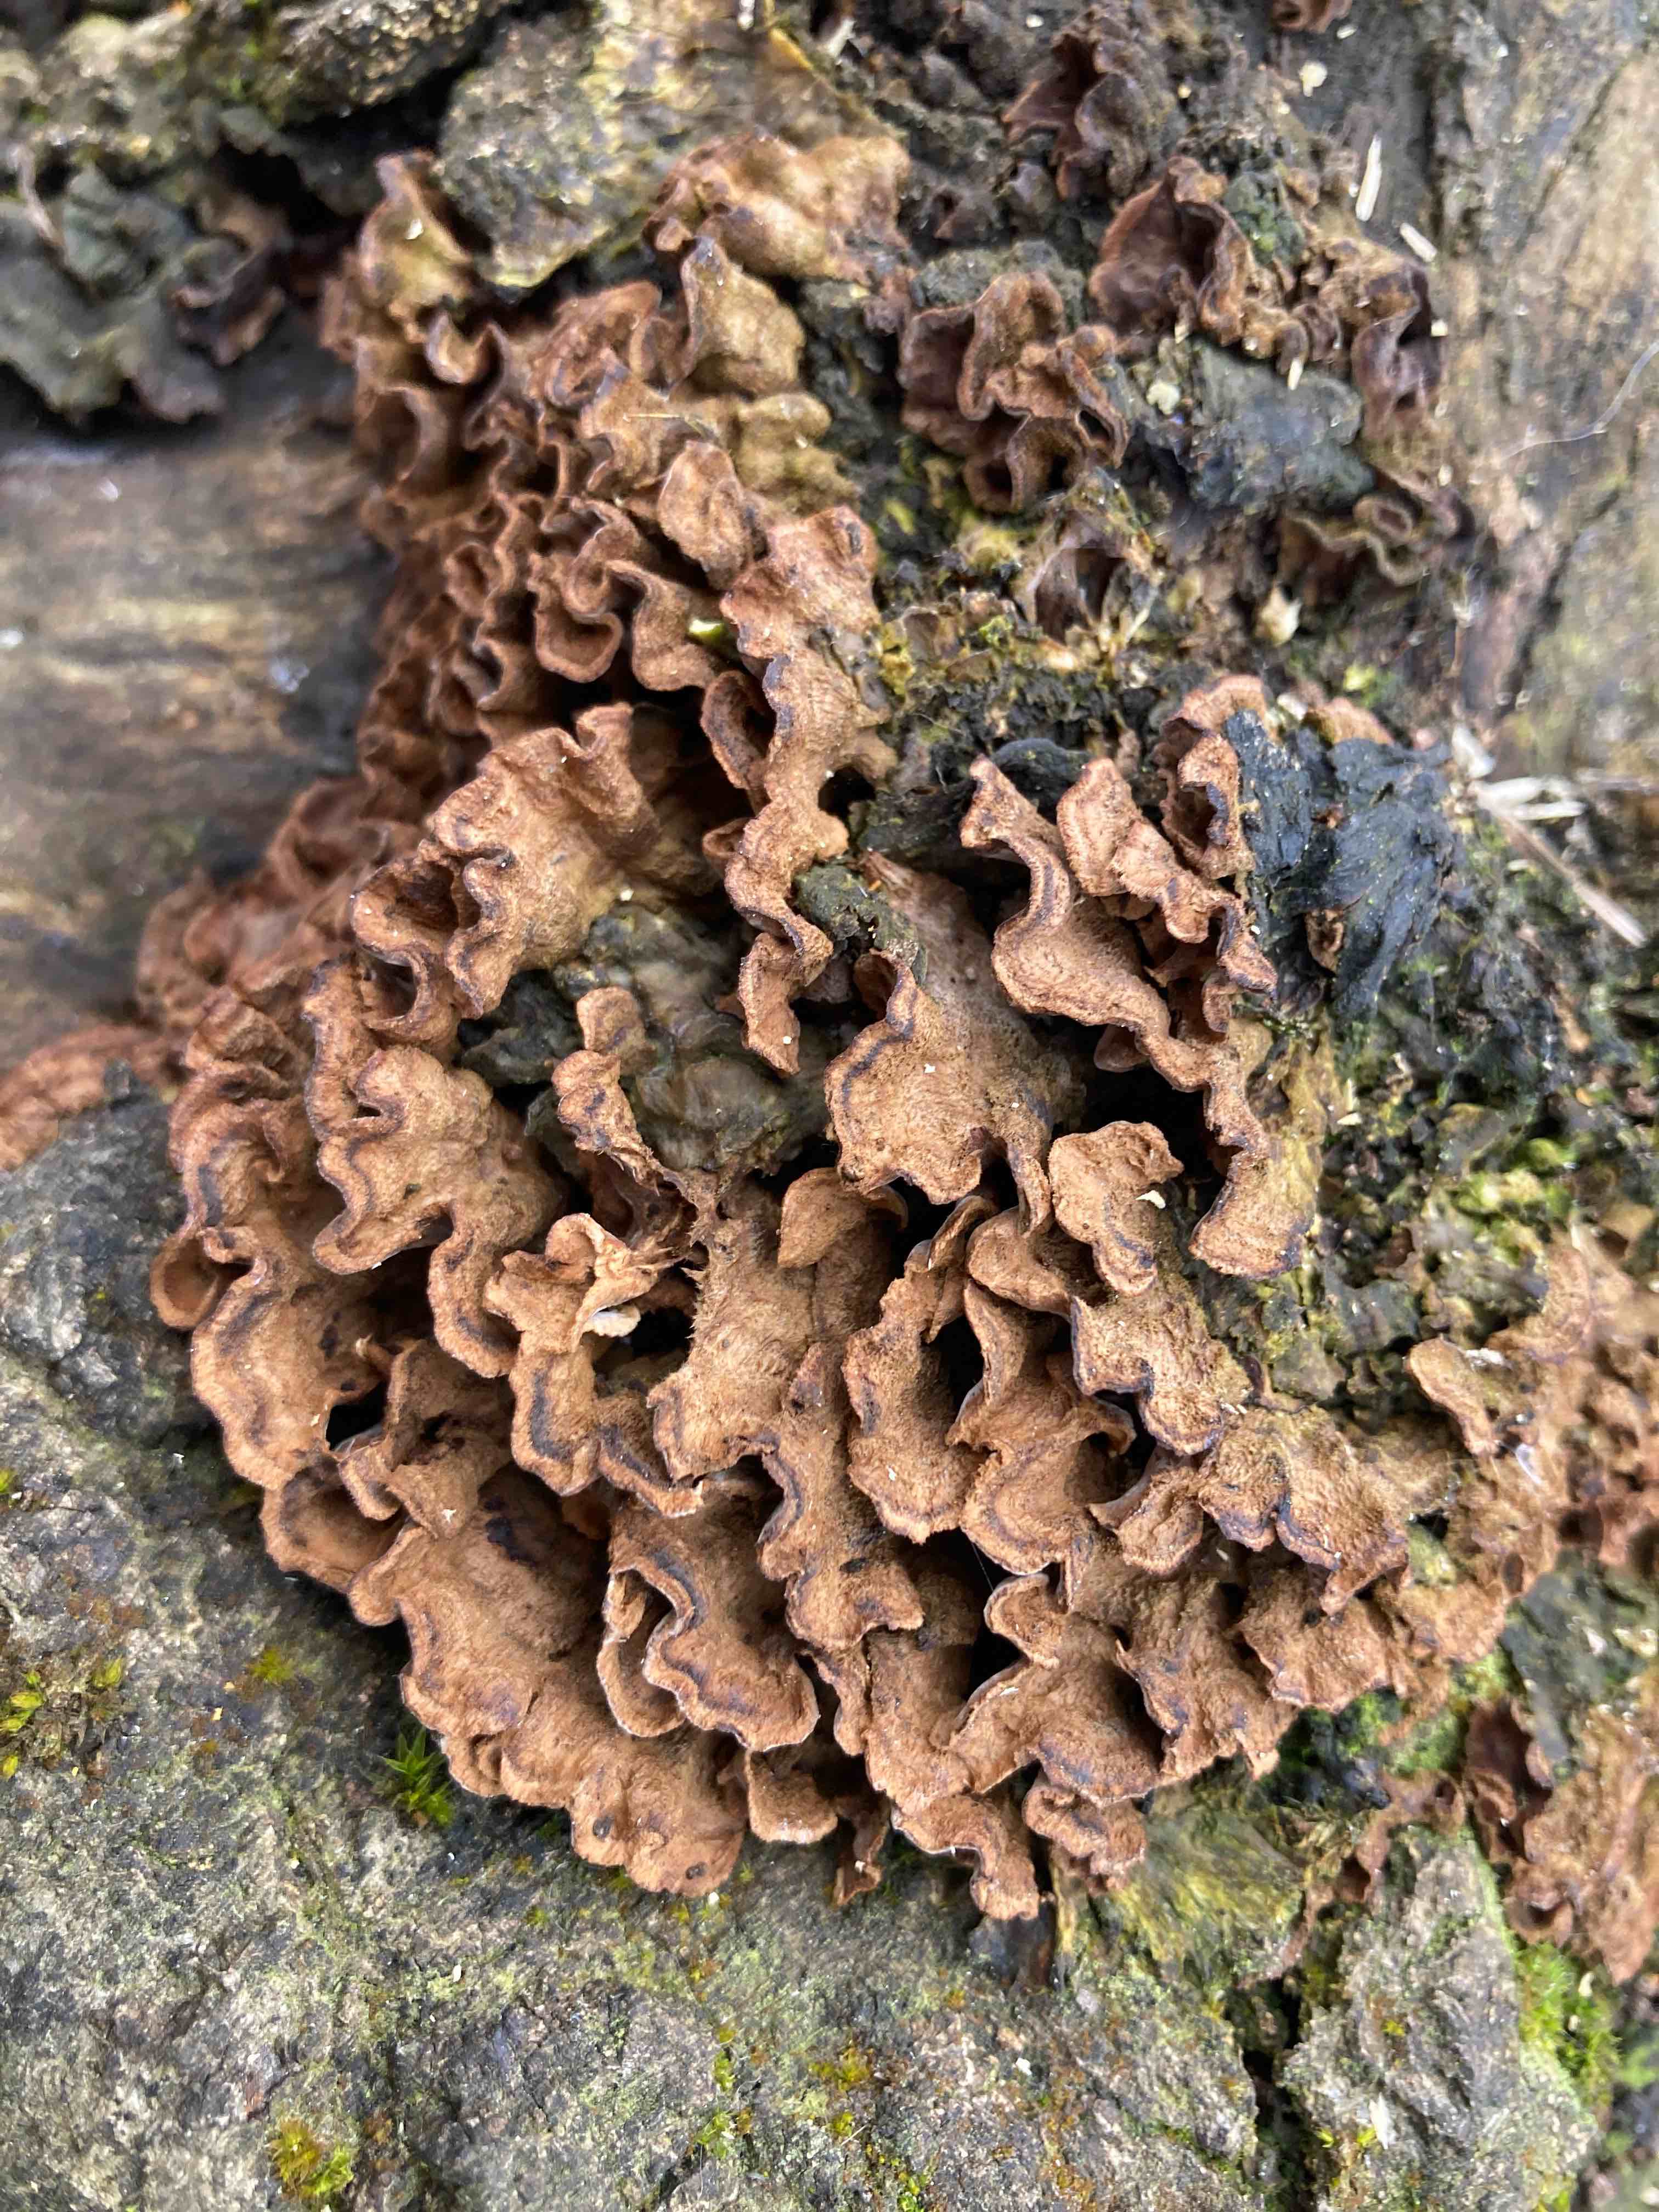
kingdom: Fungi
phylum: Basidiomycota
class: Agaricomycetes
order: Russulales
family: Hericiaceae
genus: Laxitextum
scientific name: Laxitextum bicolor
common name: tvefarvet filtskind
